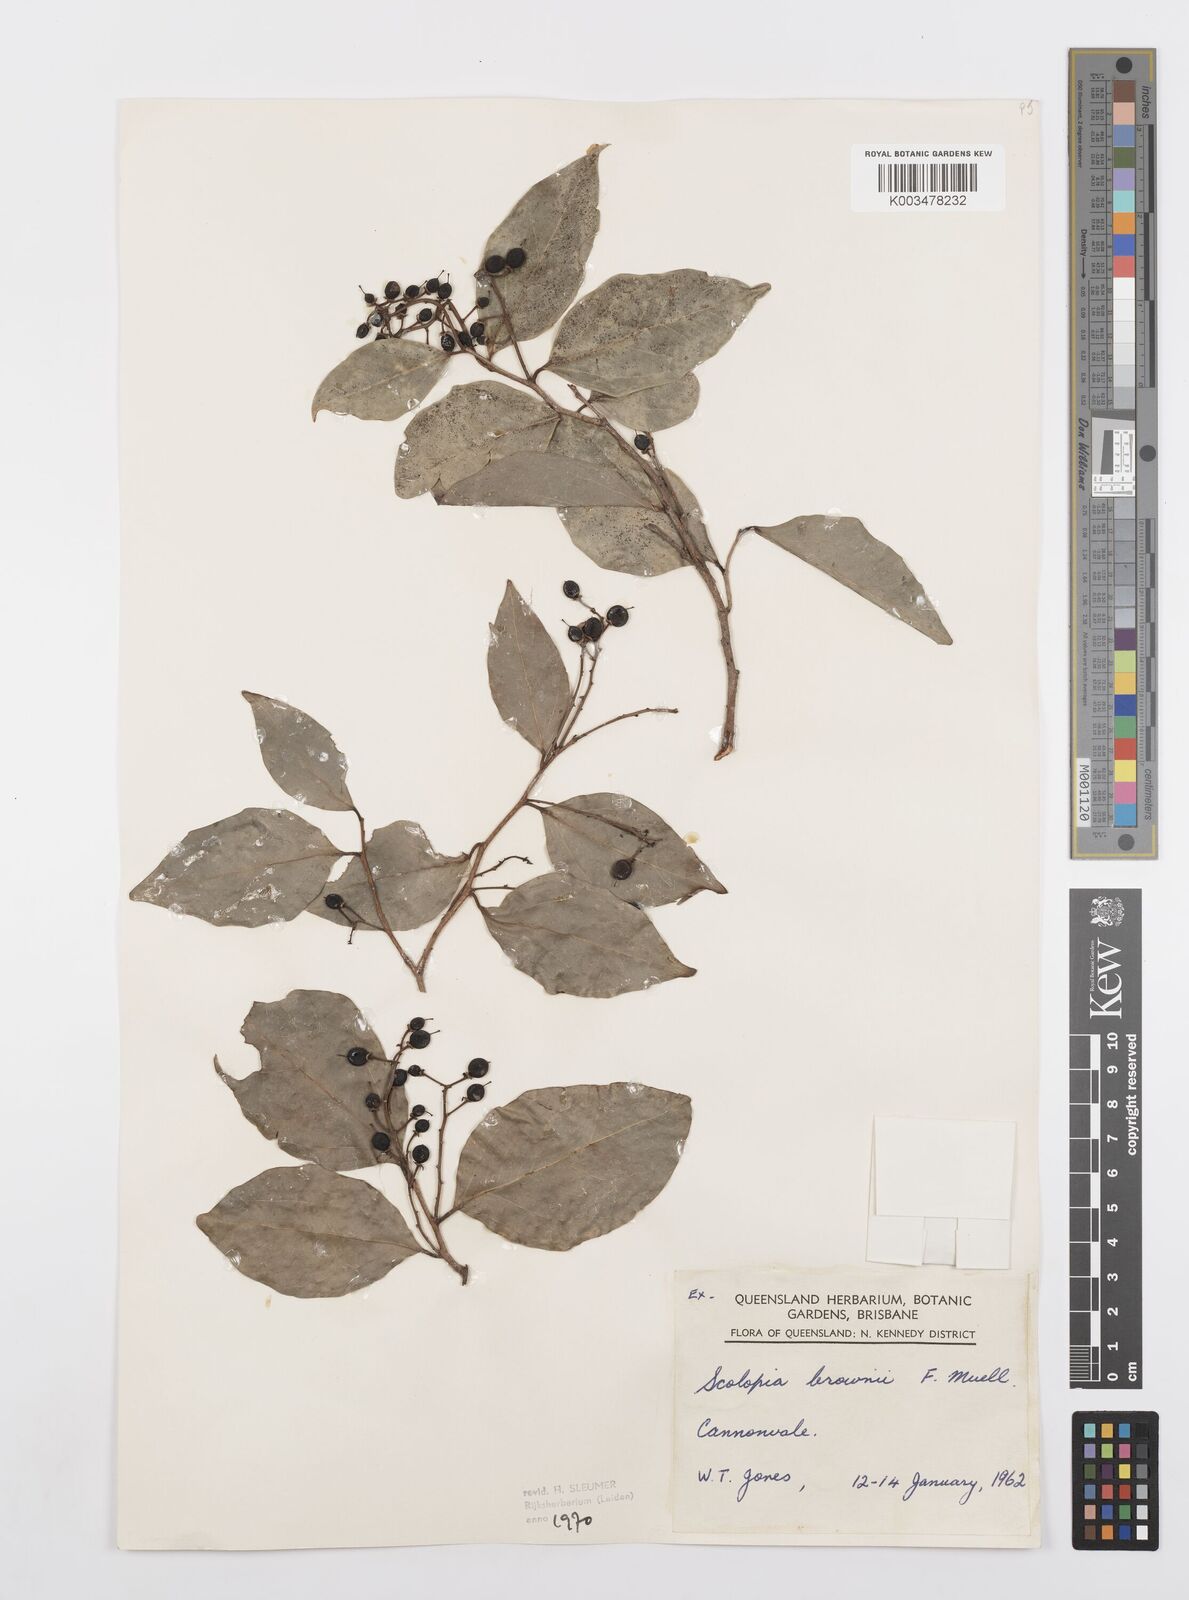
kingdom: Plantae
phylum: Tracheophyta
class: Magnoliopsida
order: Malpighiales
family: Salicaceae
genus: Scolopia
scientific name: Scolopia braunii
